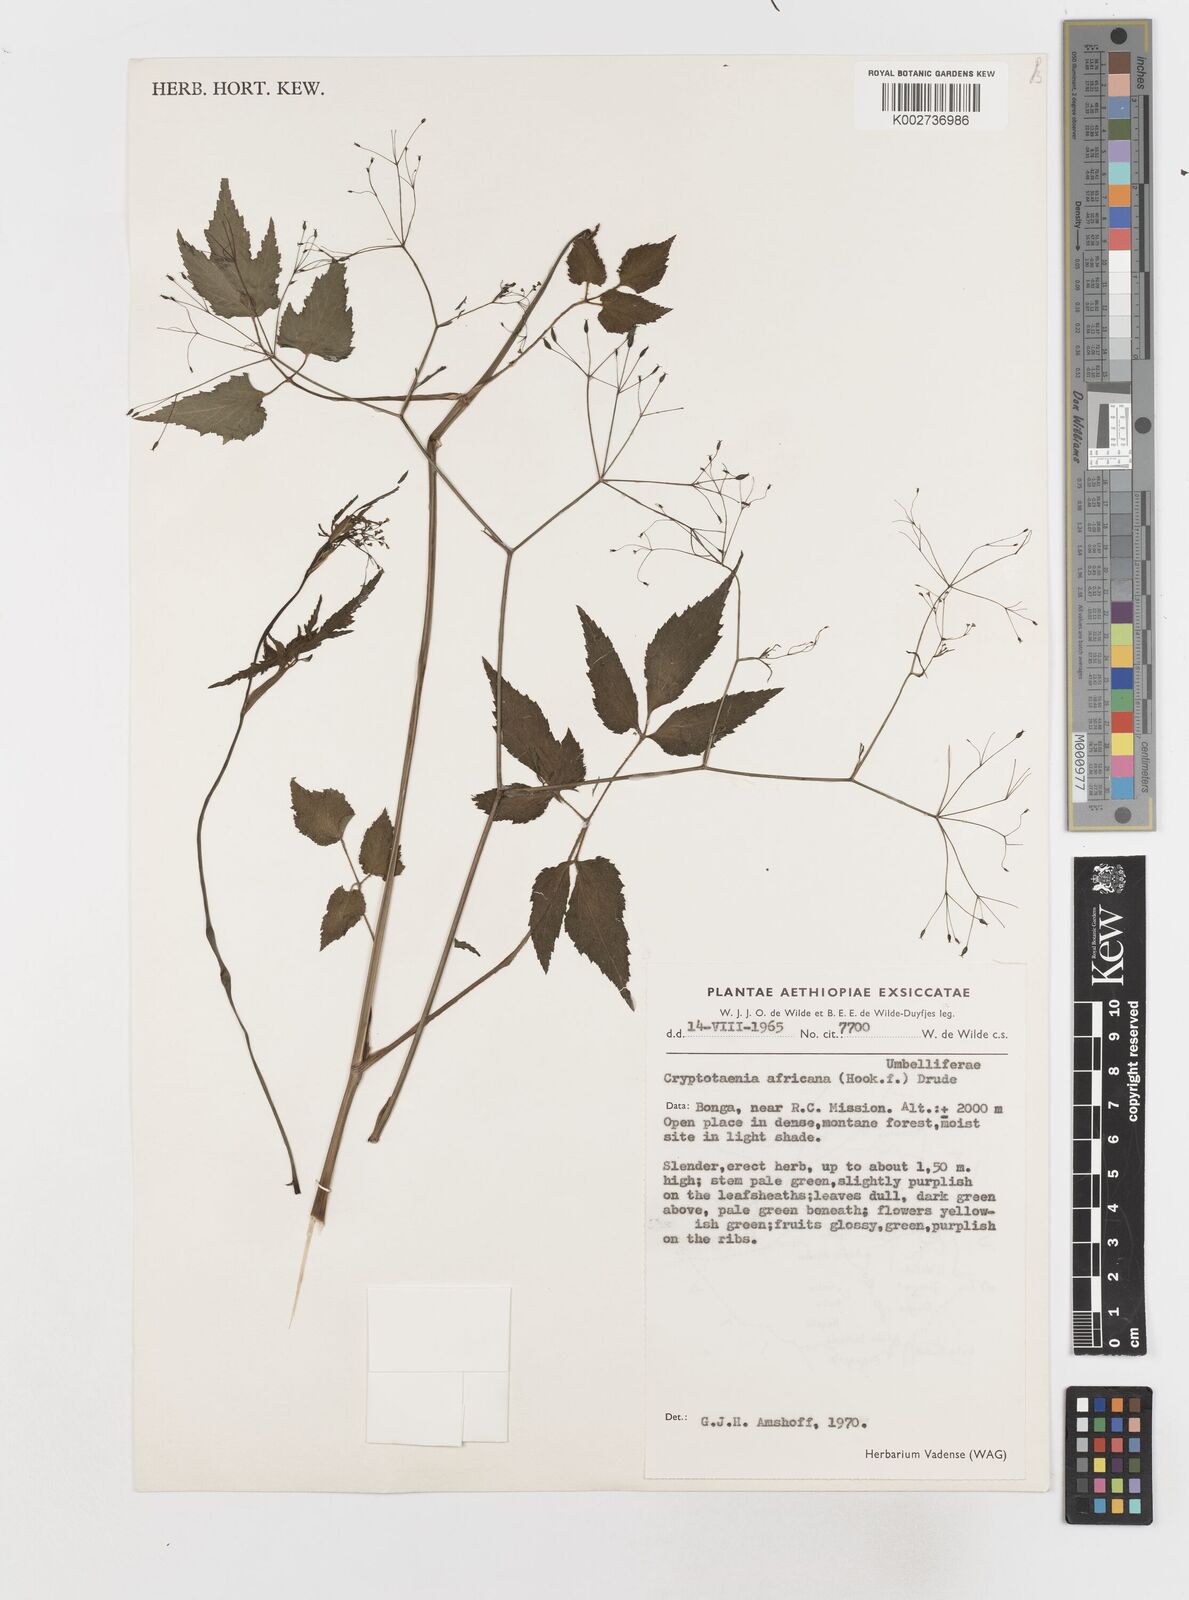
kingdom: Plantae
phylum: Tracheophyta
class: Magnoliopsida
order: Apiales
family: Apiaceae
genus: Cryptotaenia
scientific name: Cryptotaenia africana
